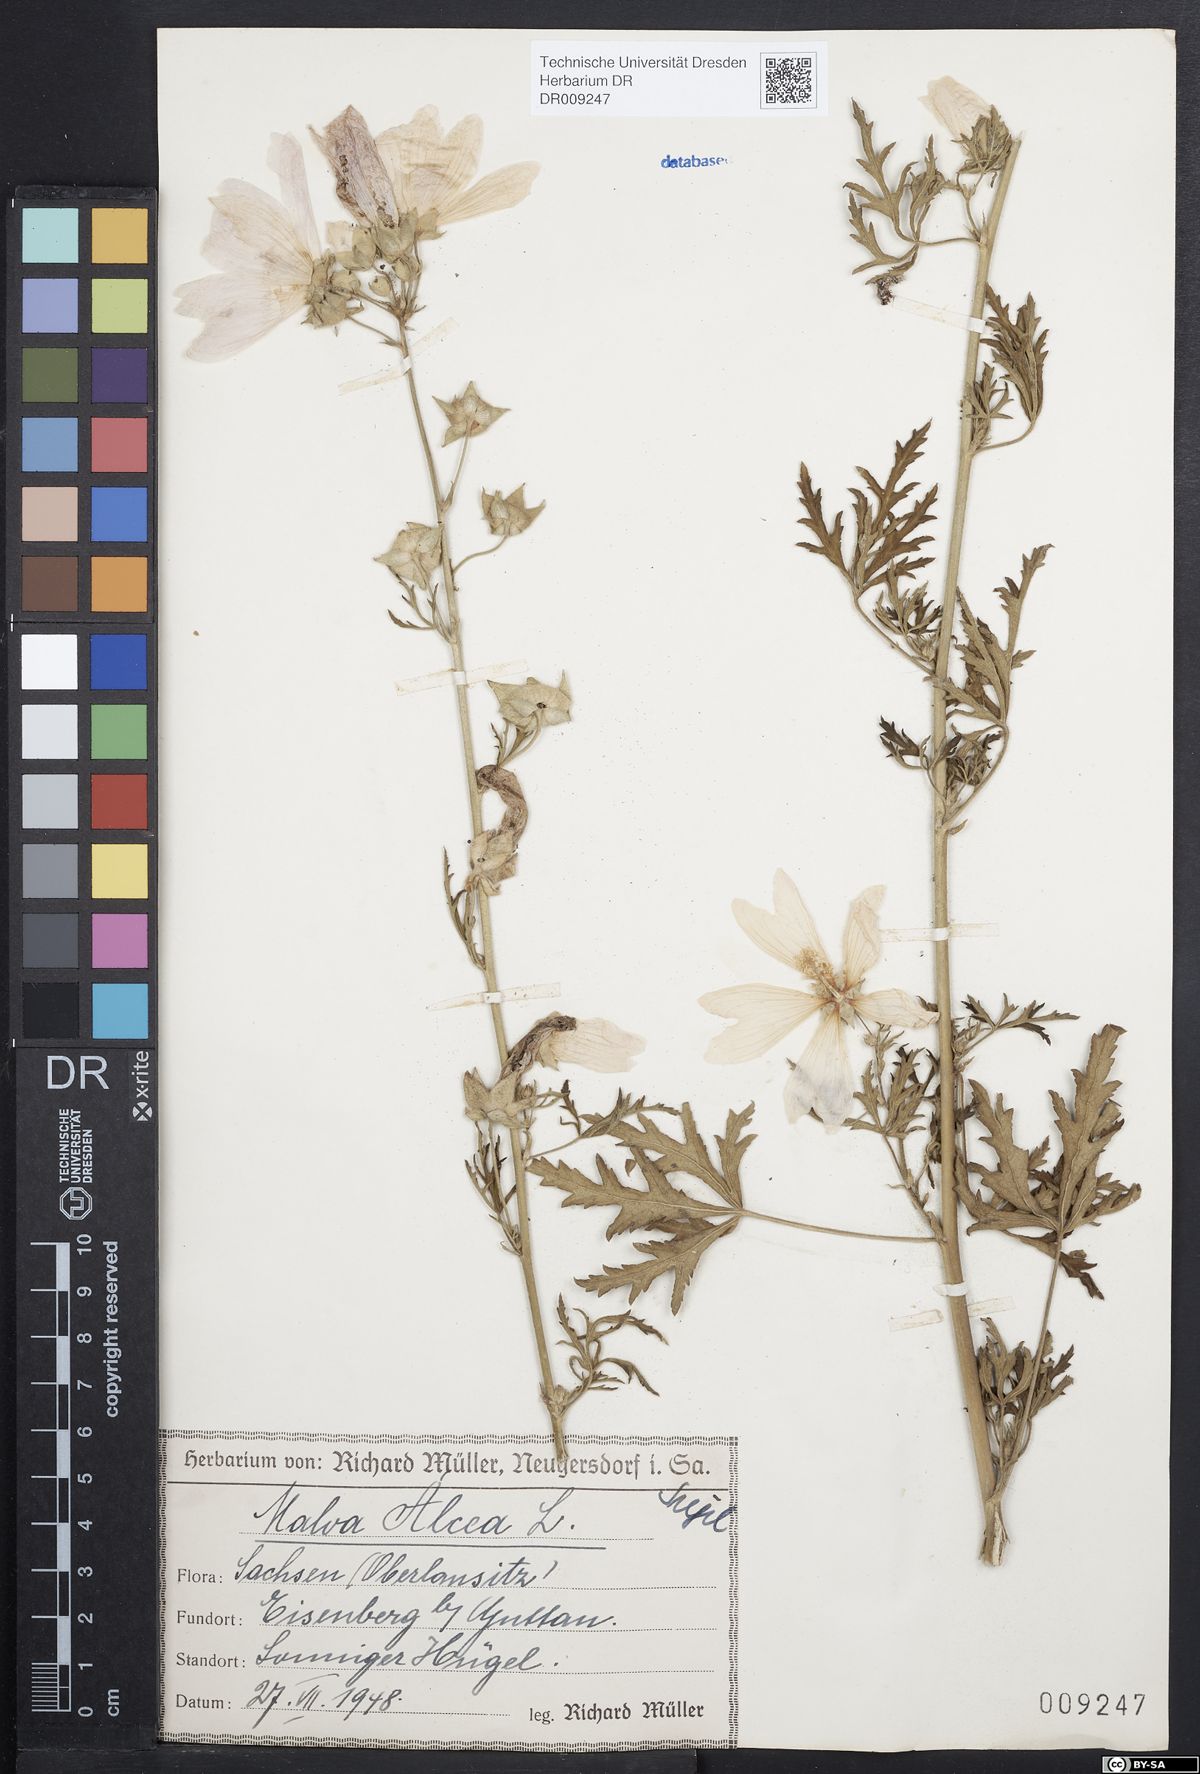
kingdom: Plantae
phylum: Tracheophyta
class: Magnoliopsida
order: Malvales
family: Malvaceae
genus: Malva
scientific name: Malva alcea
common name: Greater musk-mallow
